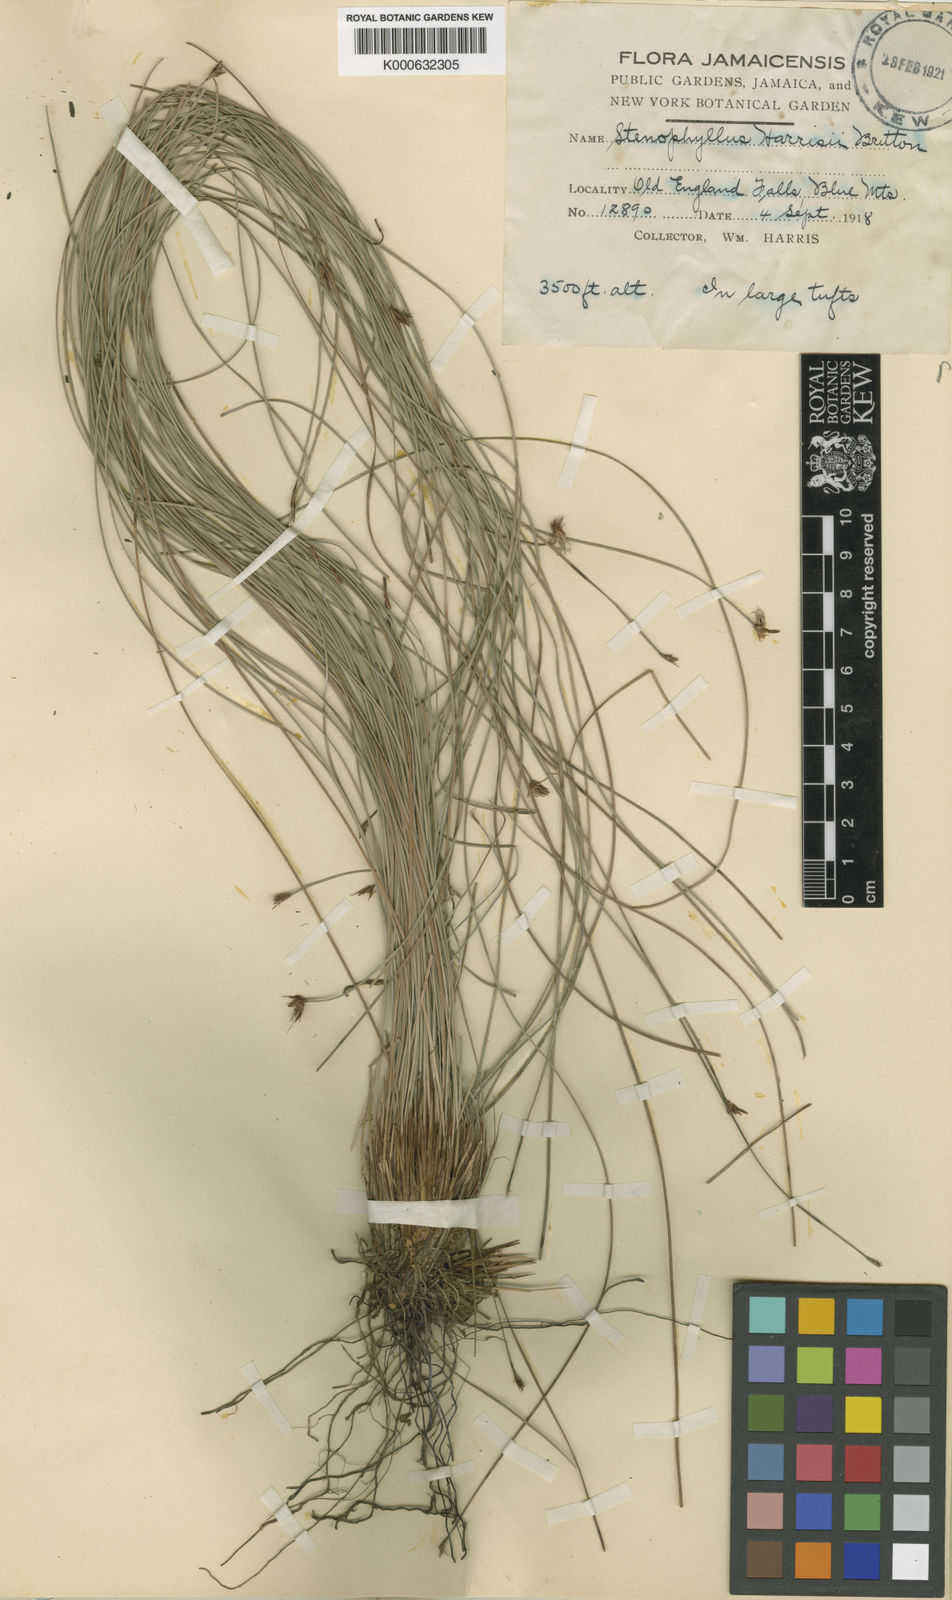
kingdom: Plantae
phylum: Tracheophyta
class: Liliopsida
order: Poales
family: Cyperaceae
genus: Bulbostylis
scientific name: Bulbostylis
